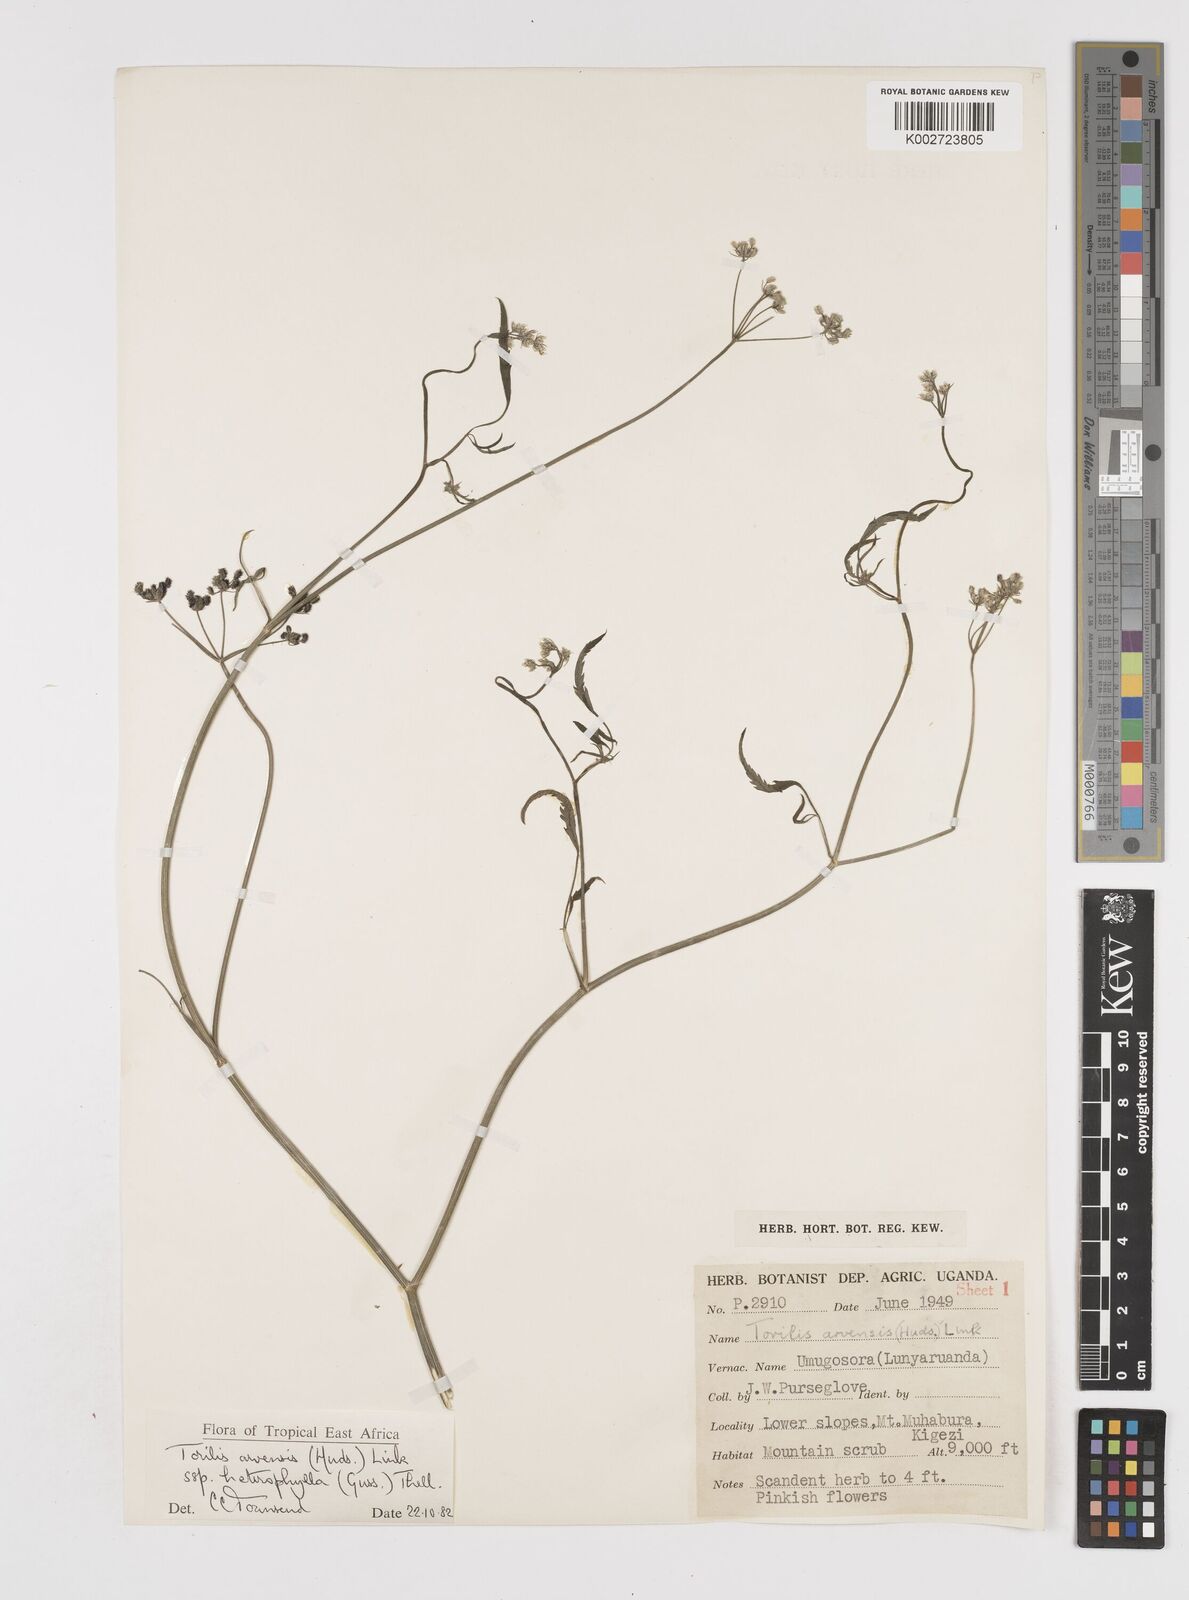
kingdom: Plantae
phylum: Tracheophyta
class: Magnoliopsida
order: Apiales
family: Apiaceae
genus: Torilis
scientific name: Torilis arvensis
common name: Spreading hedge-parsley
